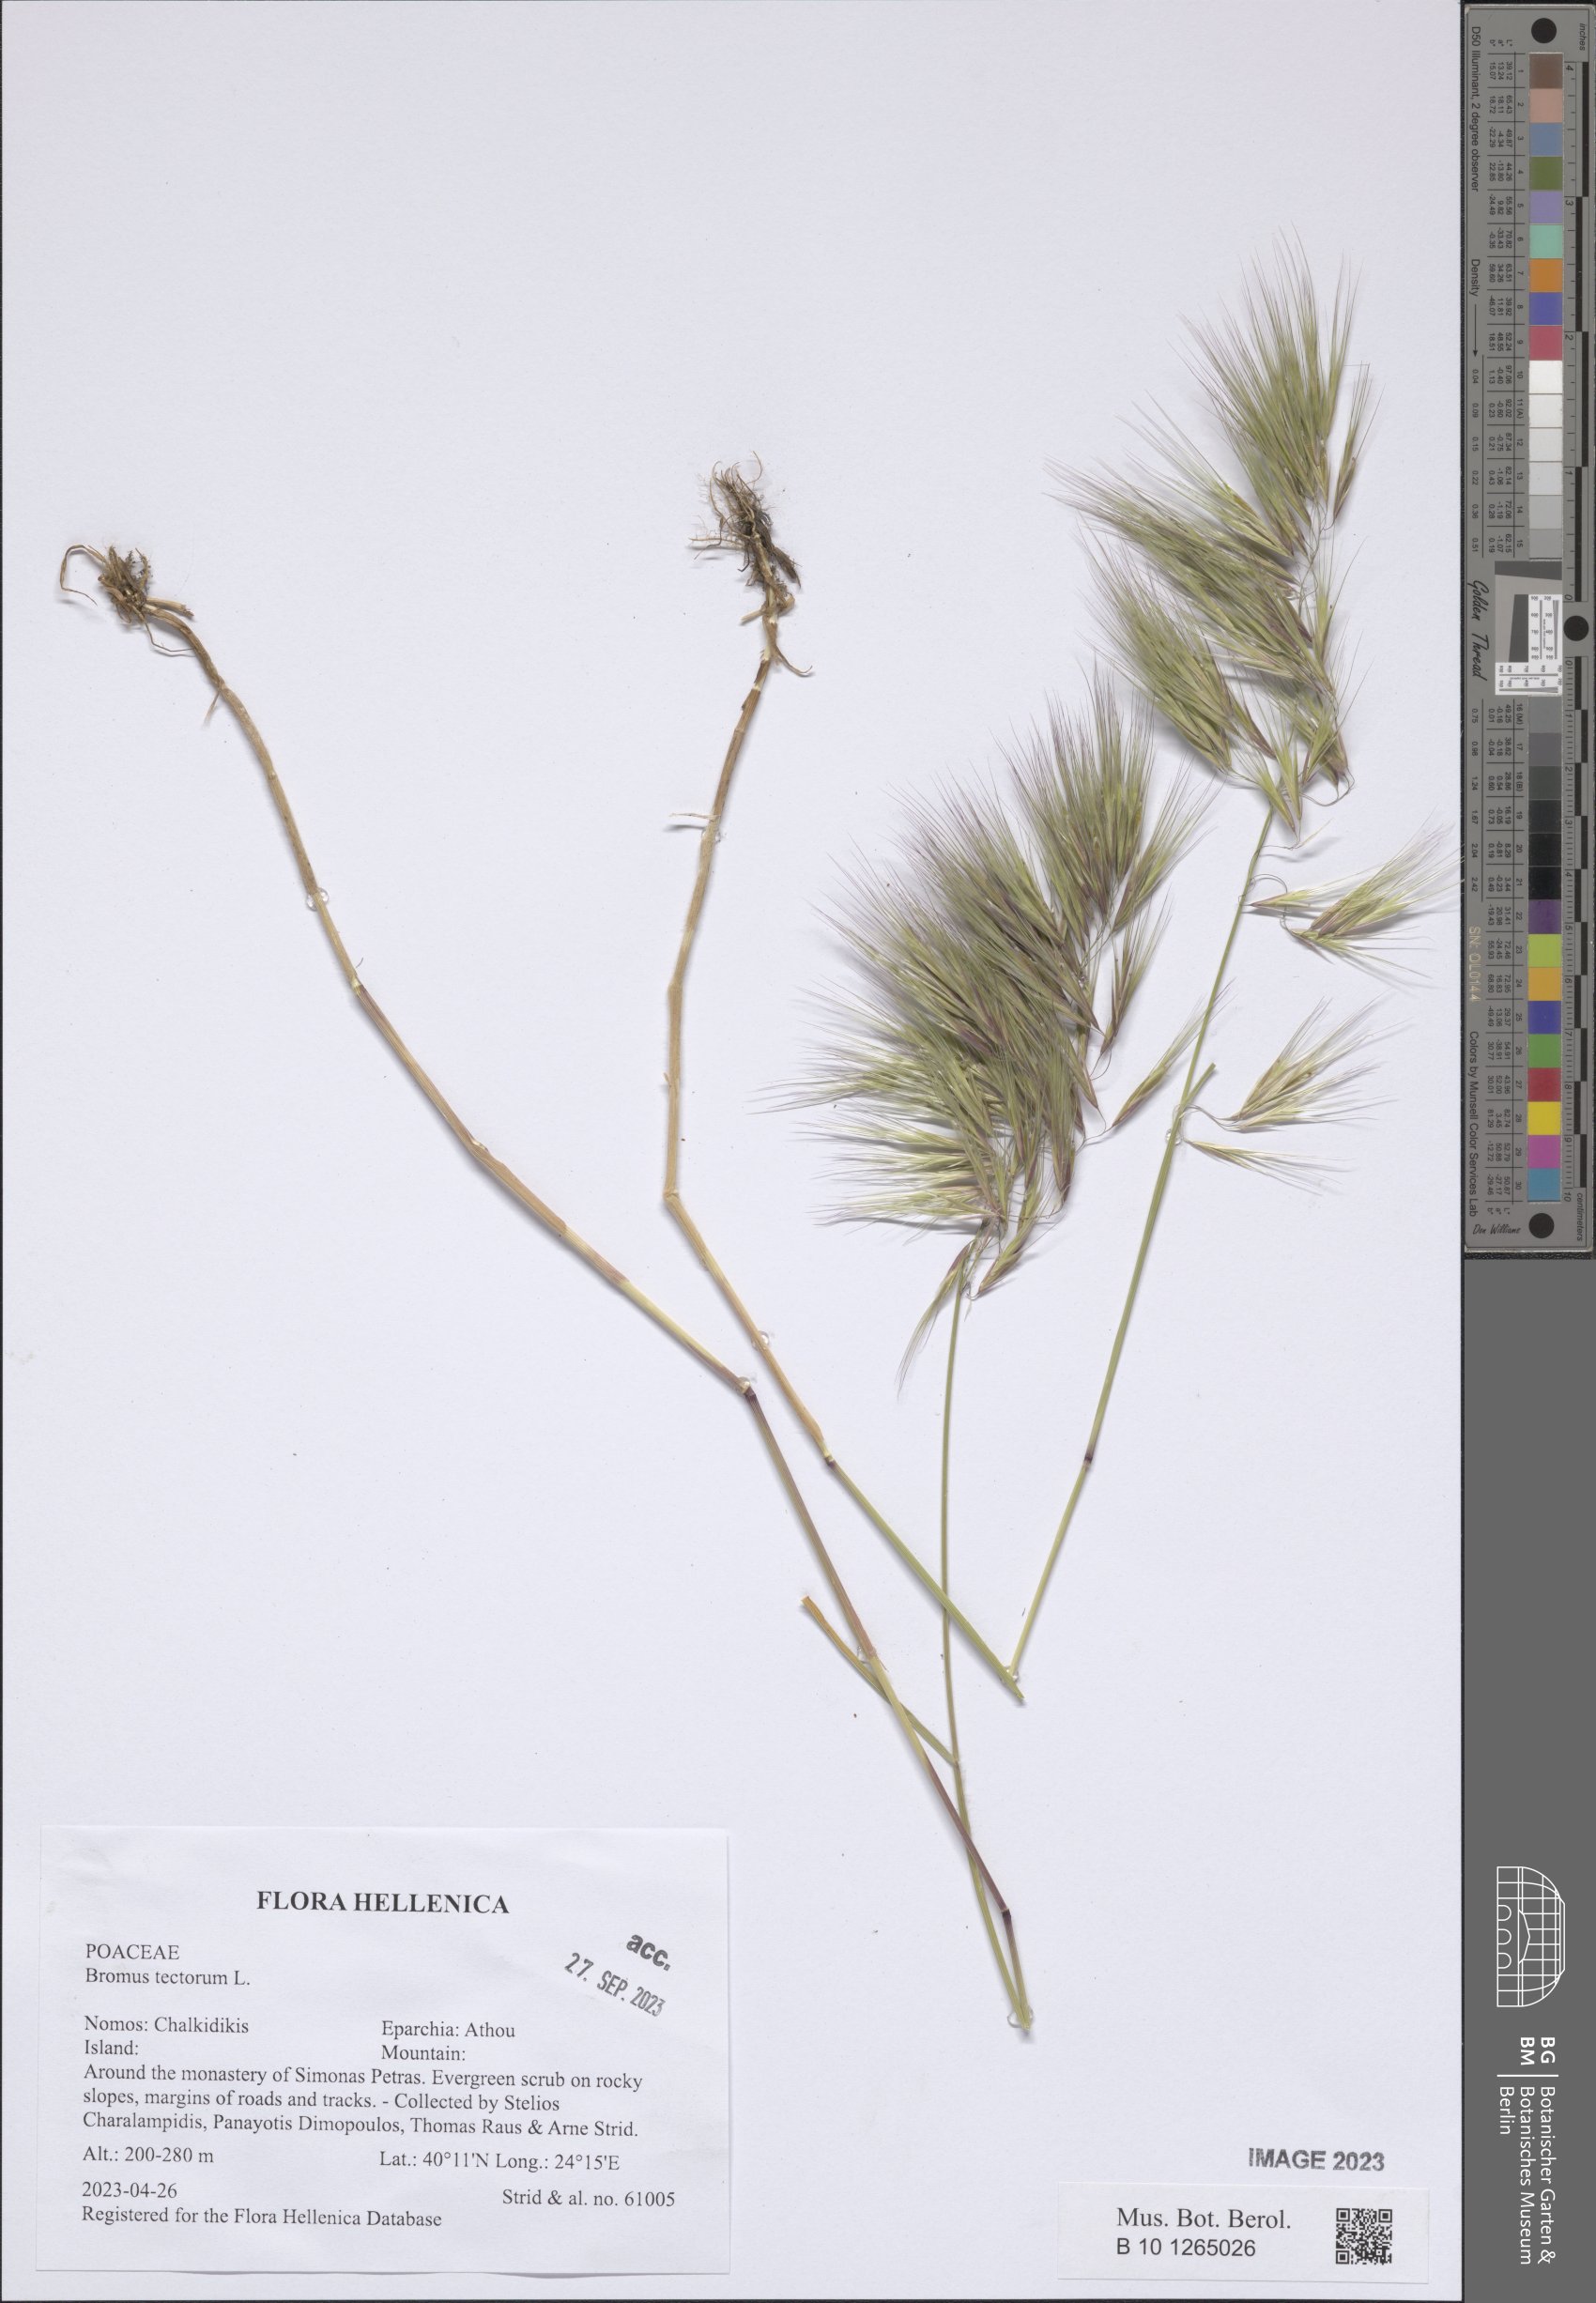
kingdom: Plantae
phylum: Tracheophyta
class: Liliopsida
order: Poales
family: Poaceae
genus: Bromus
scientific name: Bromus tectorum
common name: Cheatgrass
